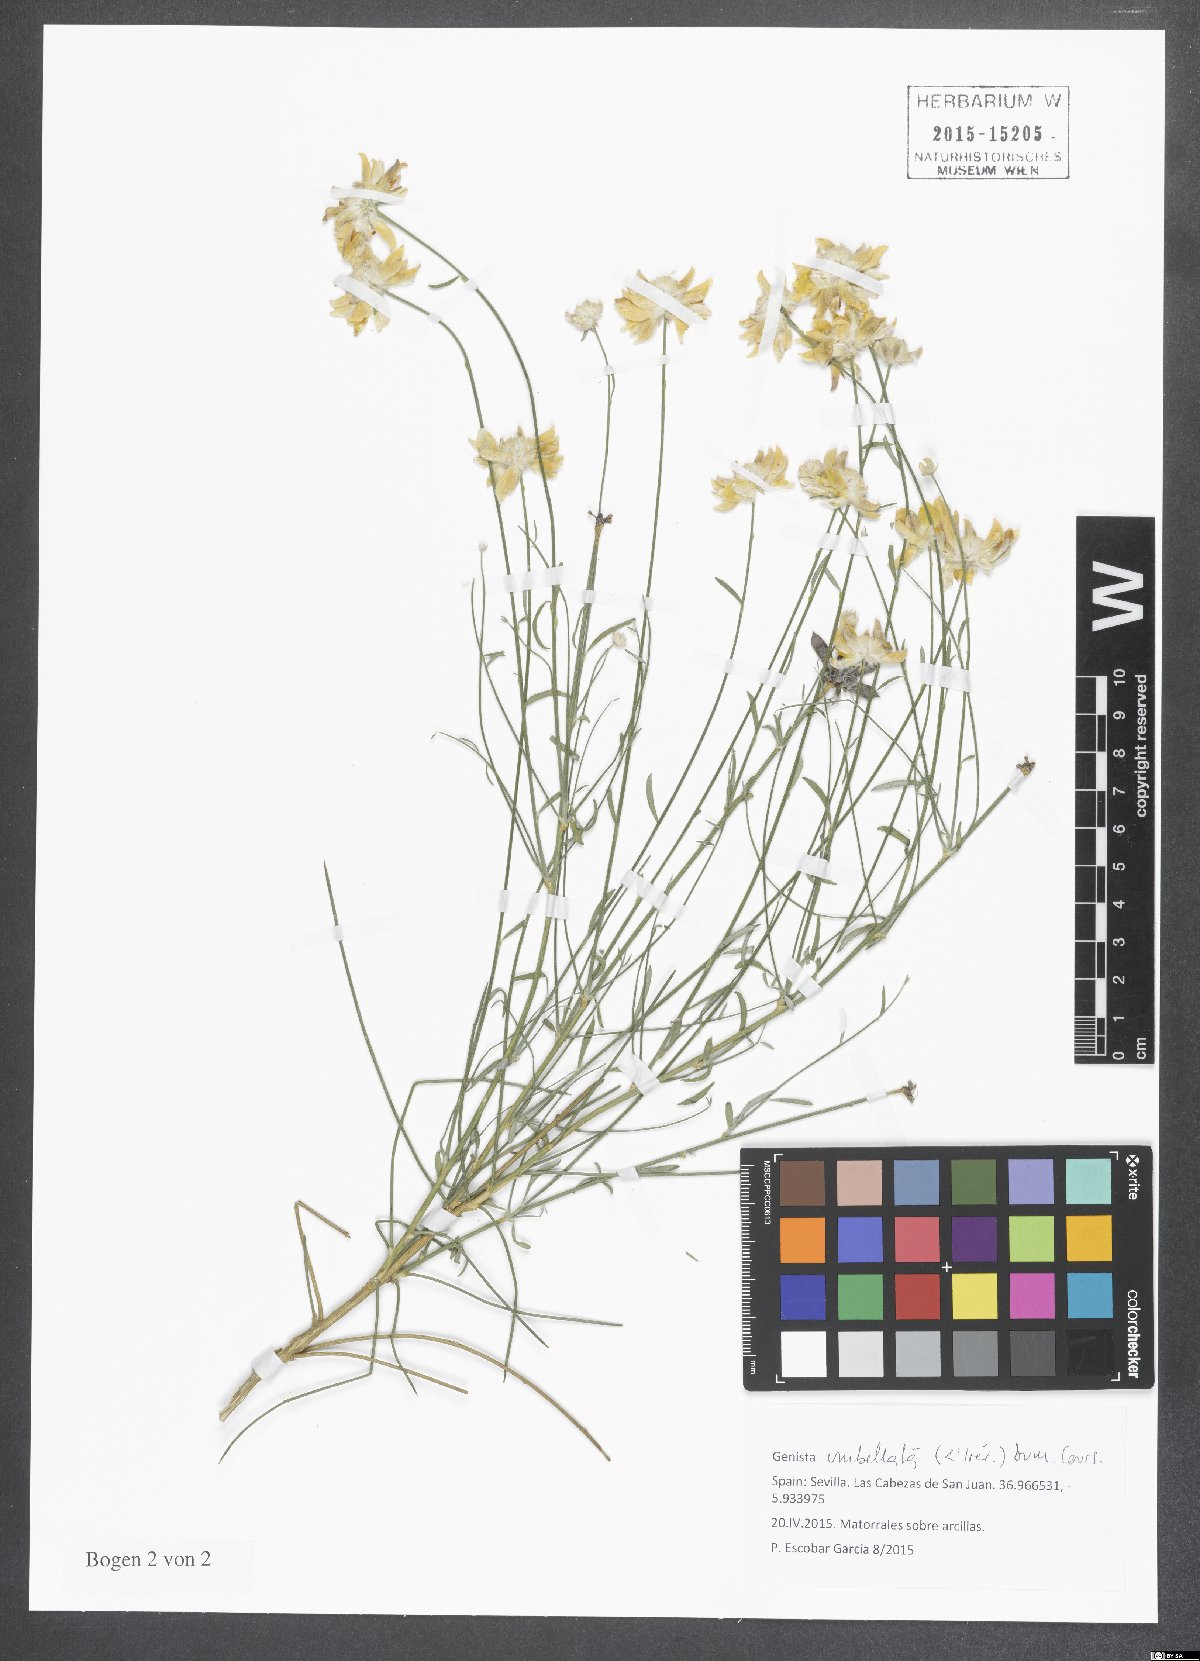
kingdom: Plantae
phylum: Tracheophyta
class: Magnoliopsida
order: Fabales
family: Fabaceae
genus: Genista
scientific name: Genista umbellata
